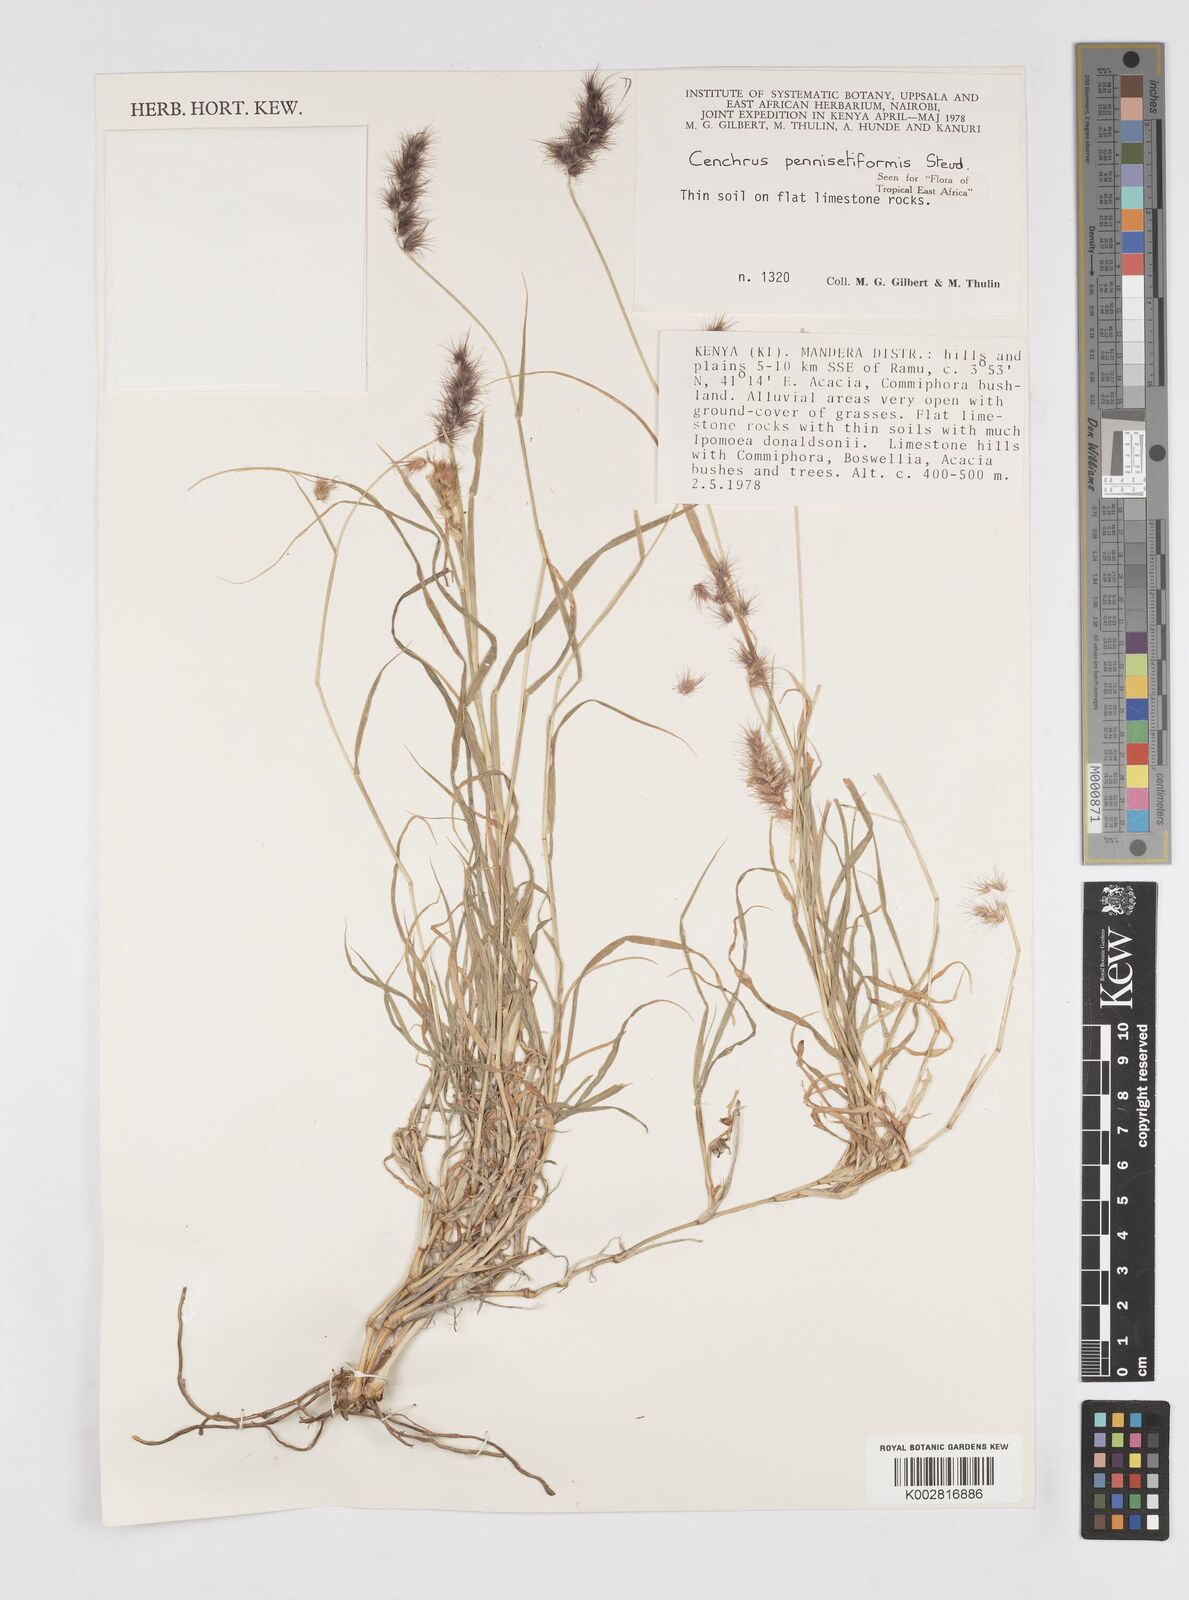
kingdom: Plantae
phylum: Tracheophyta
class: Liliopsida
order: Poales
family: Poaceae
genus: Cenchrus
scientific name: Cenchrus pennisetiformis
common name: Cloncurry
